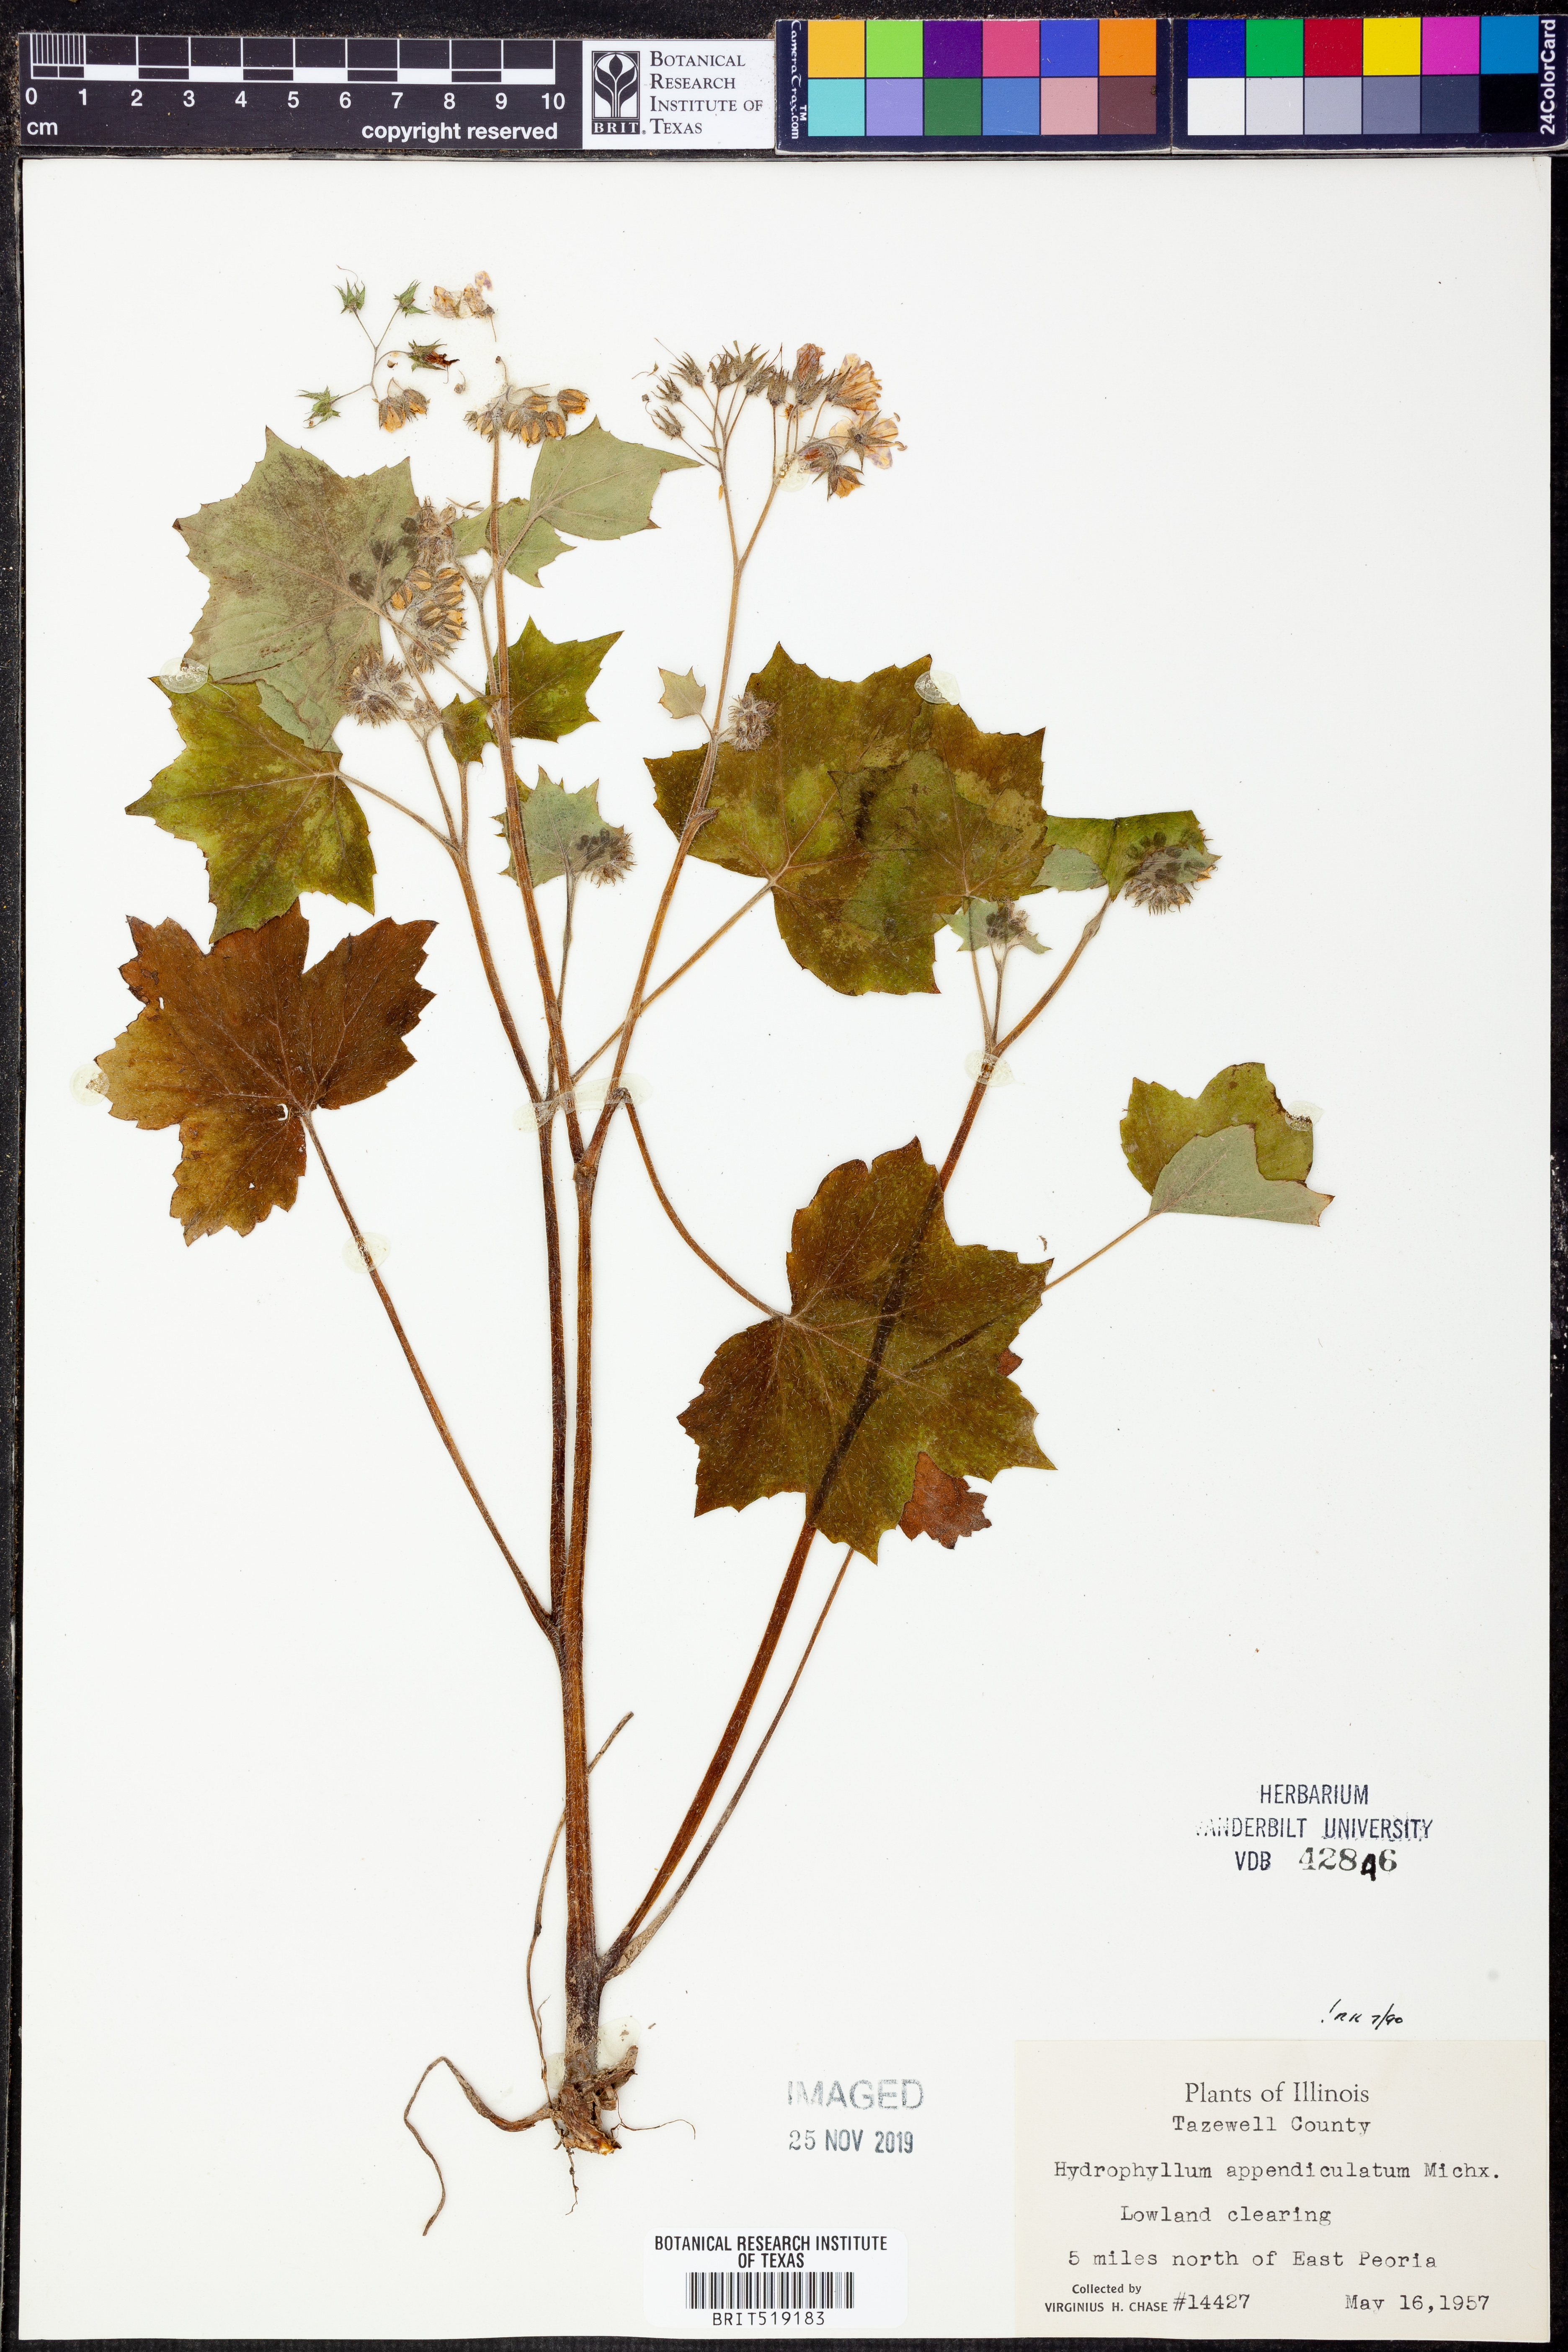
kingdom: Plantae
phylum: Tracheophyta
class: Magnoliopsida
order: Boraginales
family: Hydrophyllaceae
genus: Hydrophyllum
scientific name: Hydrophyllum appendiculatum
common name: Appendaged waterleaf
